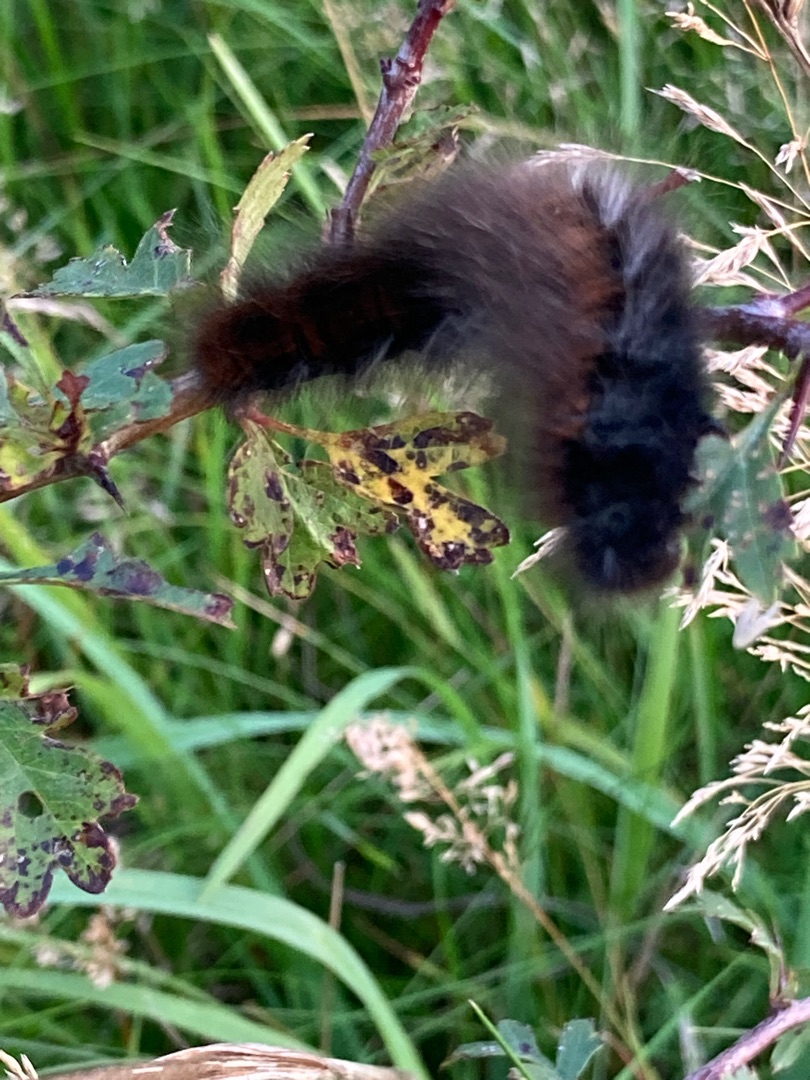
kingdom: Animalia
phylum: Arthropoda
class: Insecta
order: Lepidoptera
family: Lasiocampidae
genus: Macrothylacia
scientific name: Macrothylacia rubi
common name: Brombærspinder
